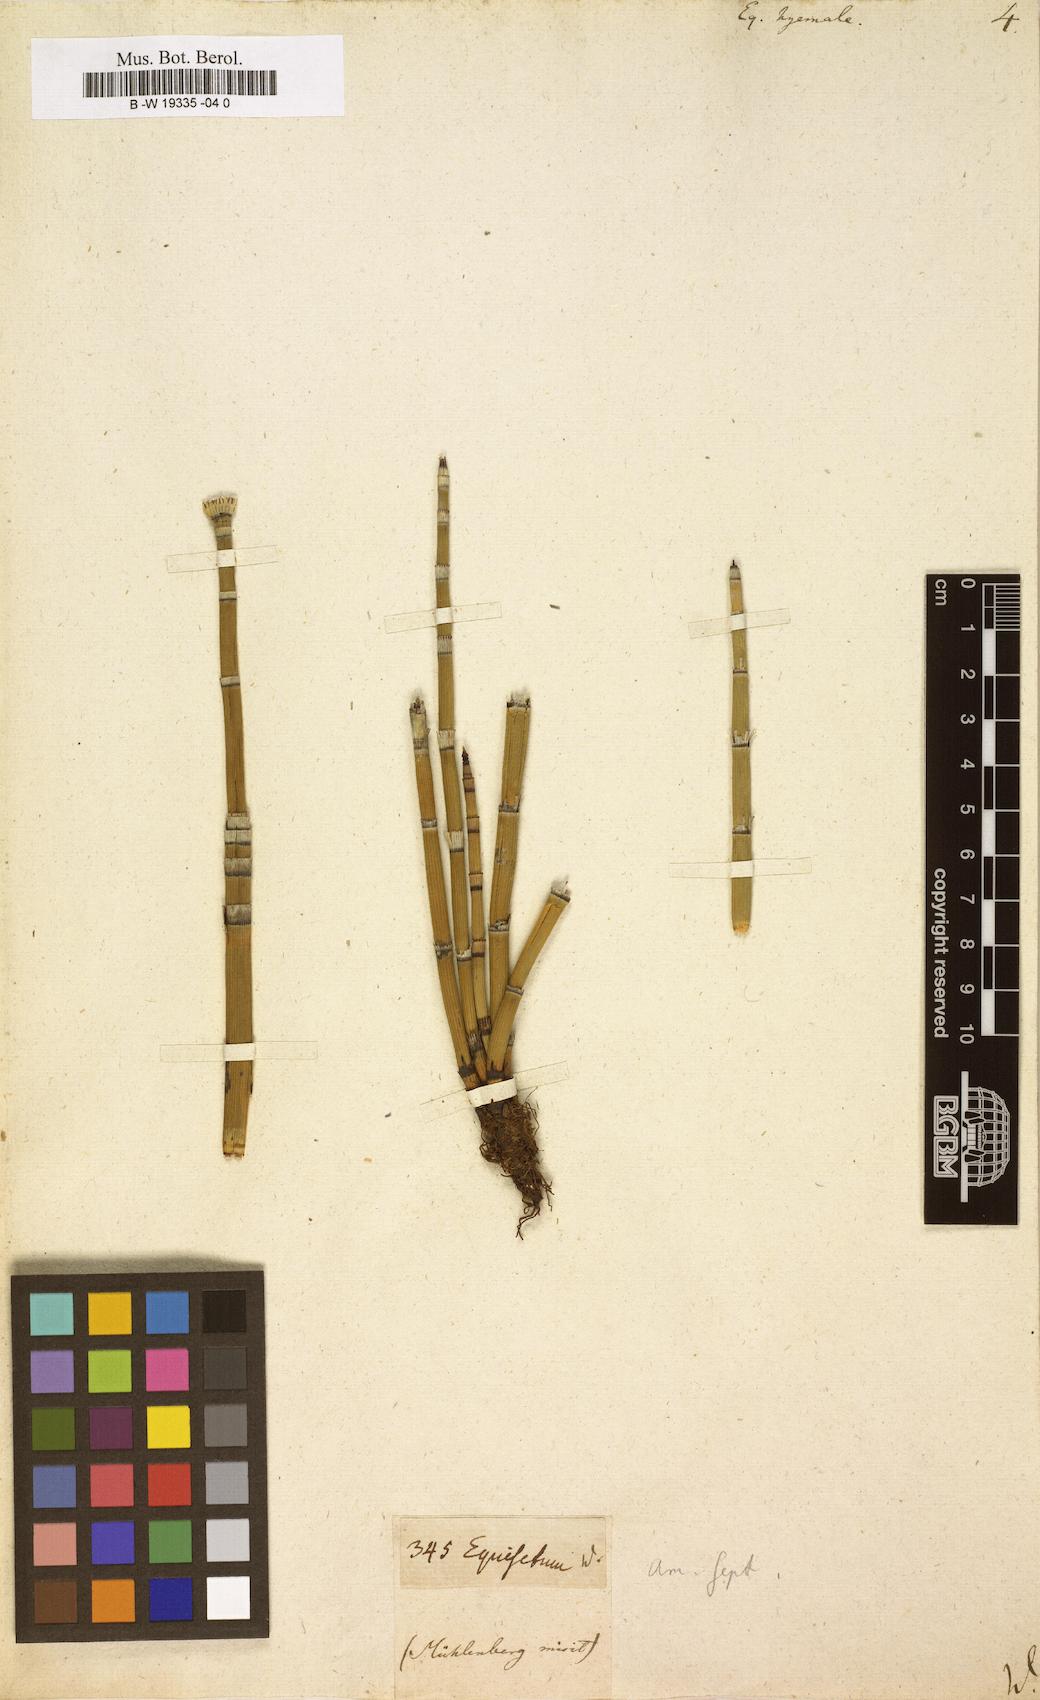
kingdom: Plantae
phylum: Tracheophyta
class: Polypodiopsida
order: Equisetales
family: Equisetaceae
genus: Equisetum
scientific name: Equisetum hyemale
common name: Rough horsetail
